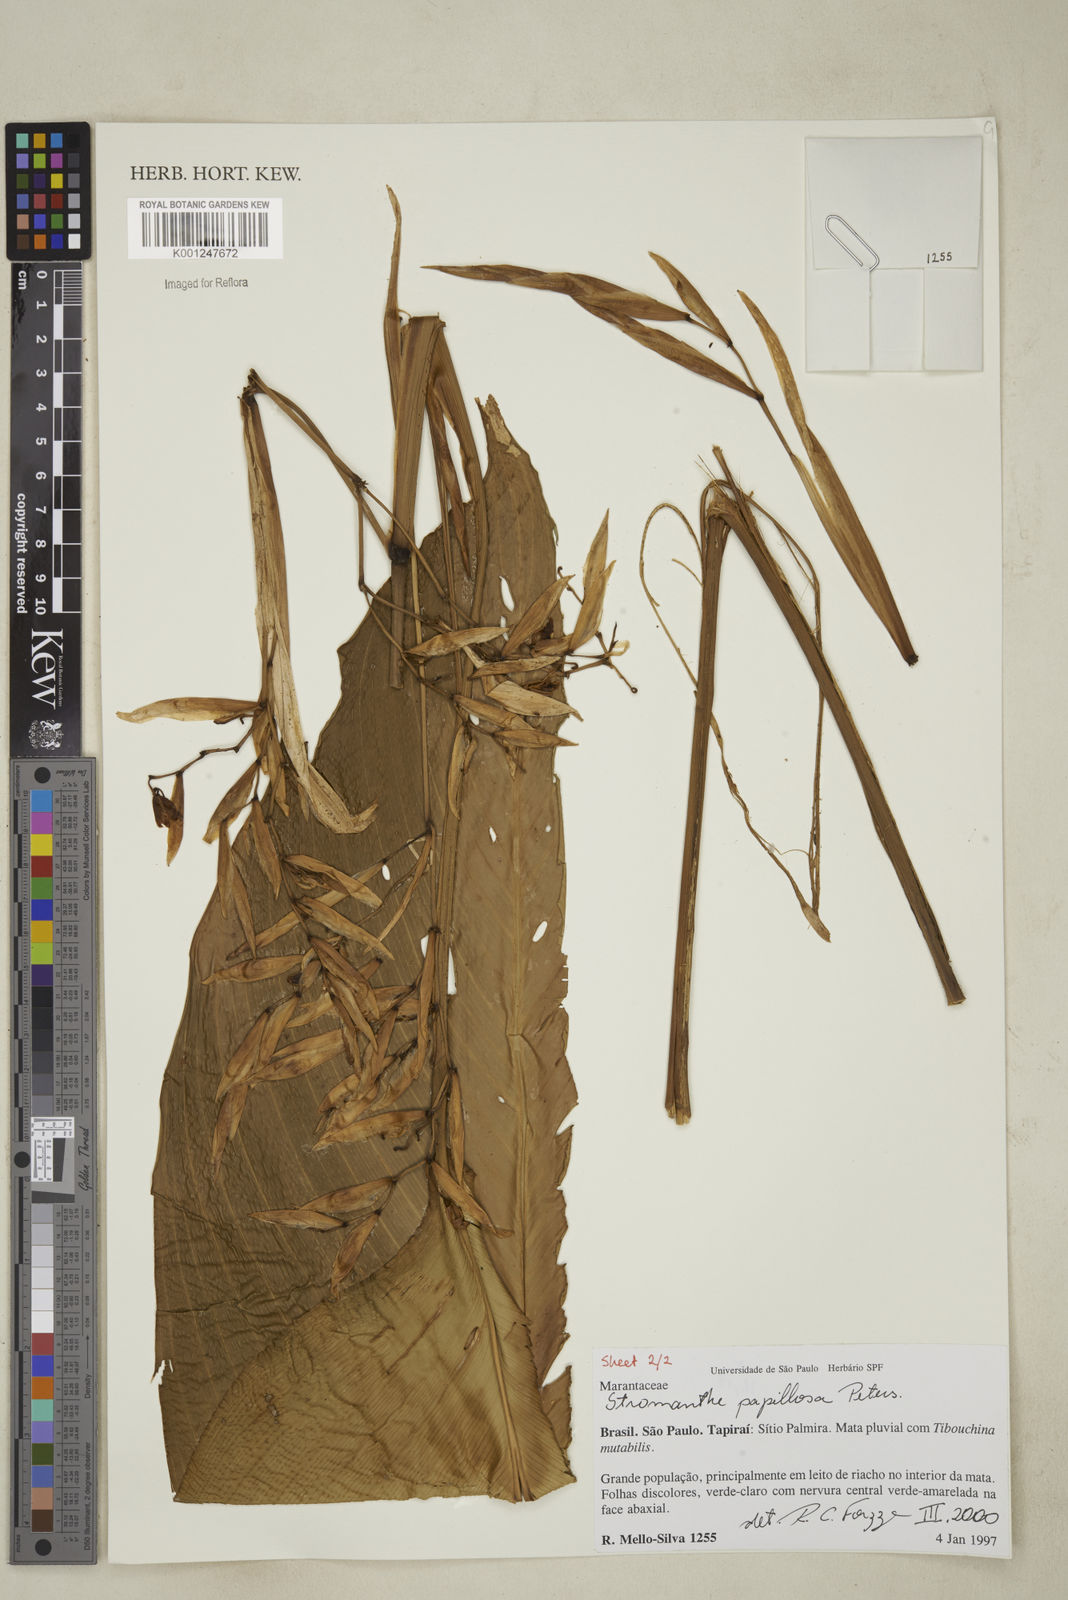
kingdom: Plantae
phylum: Tracheophyta
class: Liliopsida
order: Zingiberales
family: Marantaceae
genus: Stromanthe
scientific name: Stromanthe papillosa
